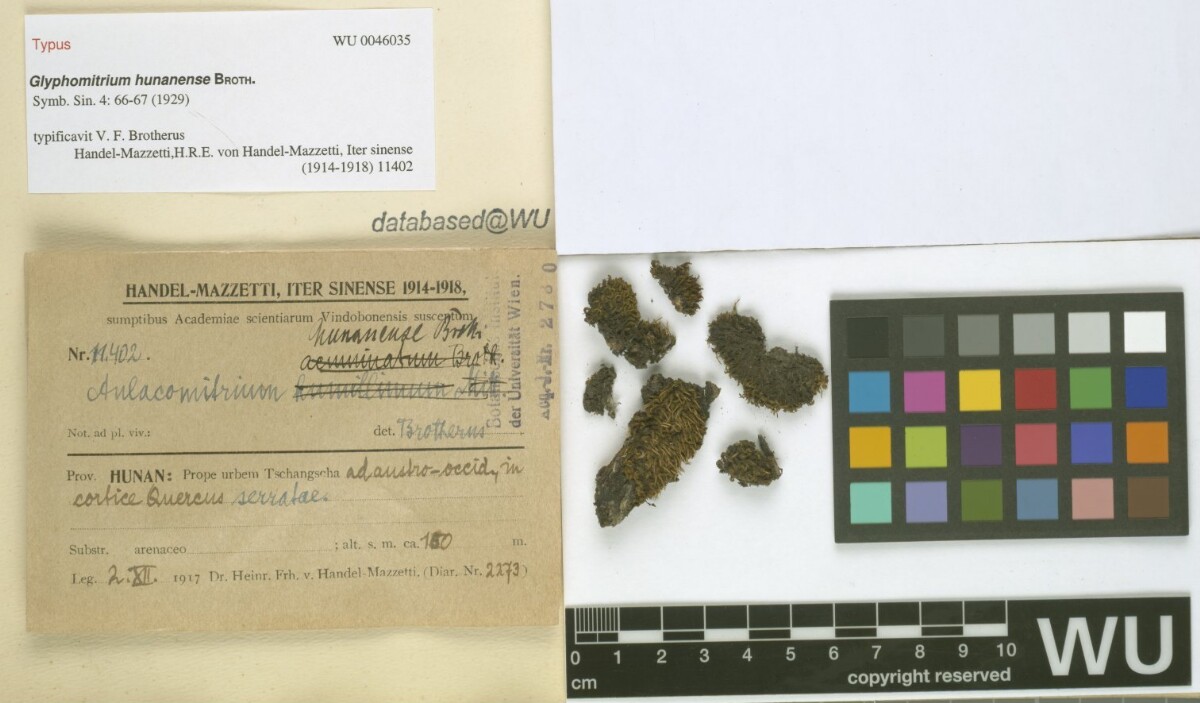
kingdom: Plantae
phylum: Bryophyta
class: Bryopsida
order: Dicranales
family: Rhabdoweisiaceae
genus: Glyphomitrium
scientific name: Glyphomitrium hunanense
